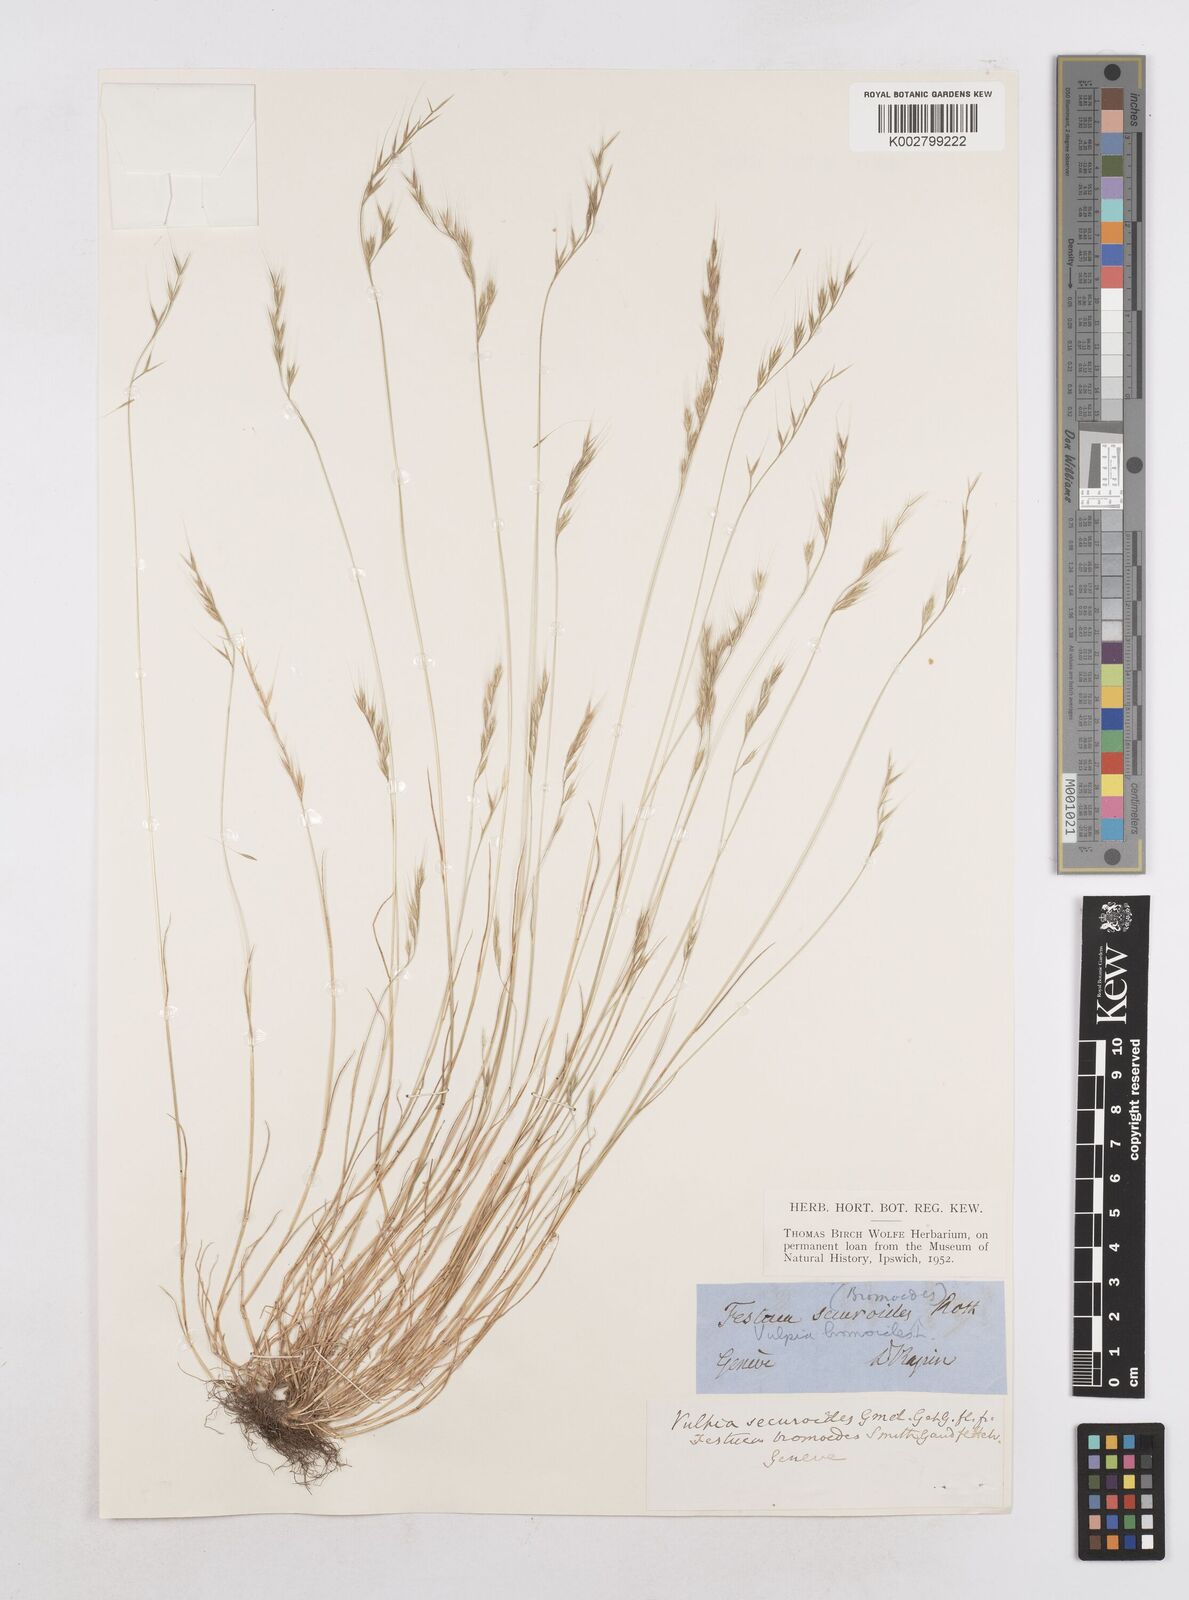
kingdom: Plantae
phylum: Tracheophyta
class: Liliopsida
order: Poales
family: Poaceae
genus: Festuca
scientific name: Festuca bromoides
